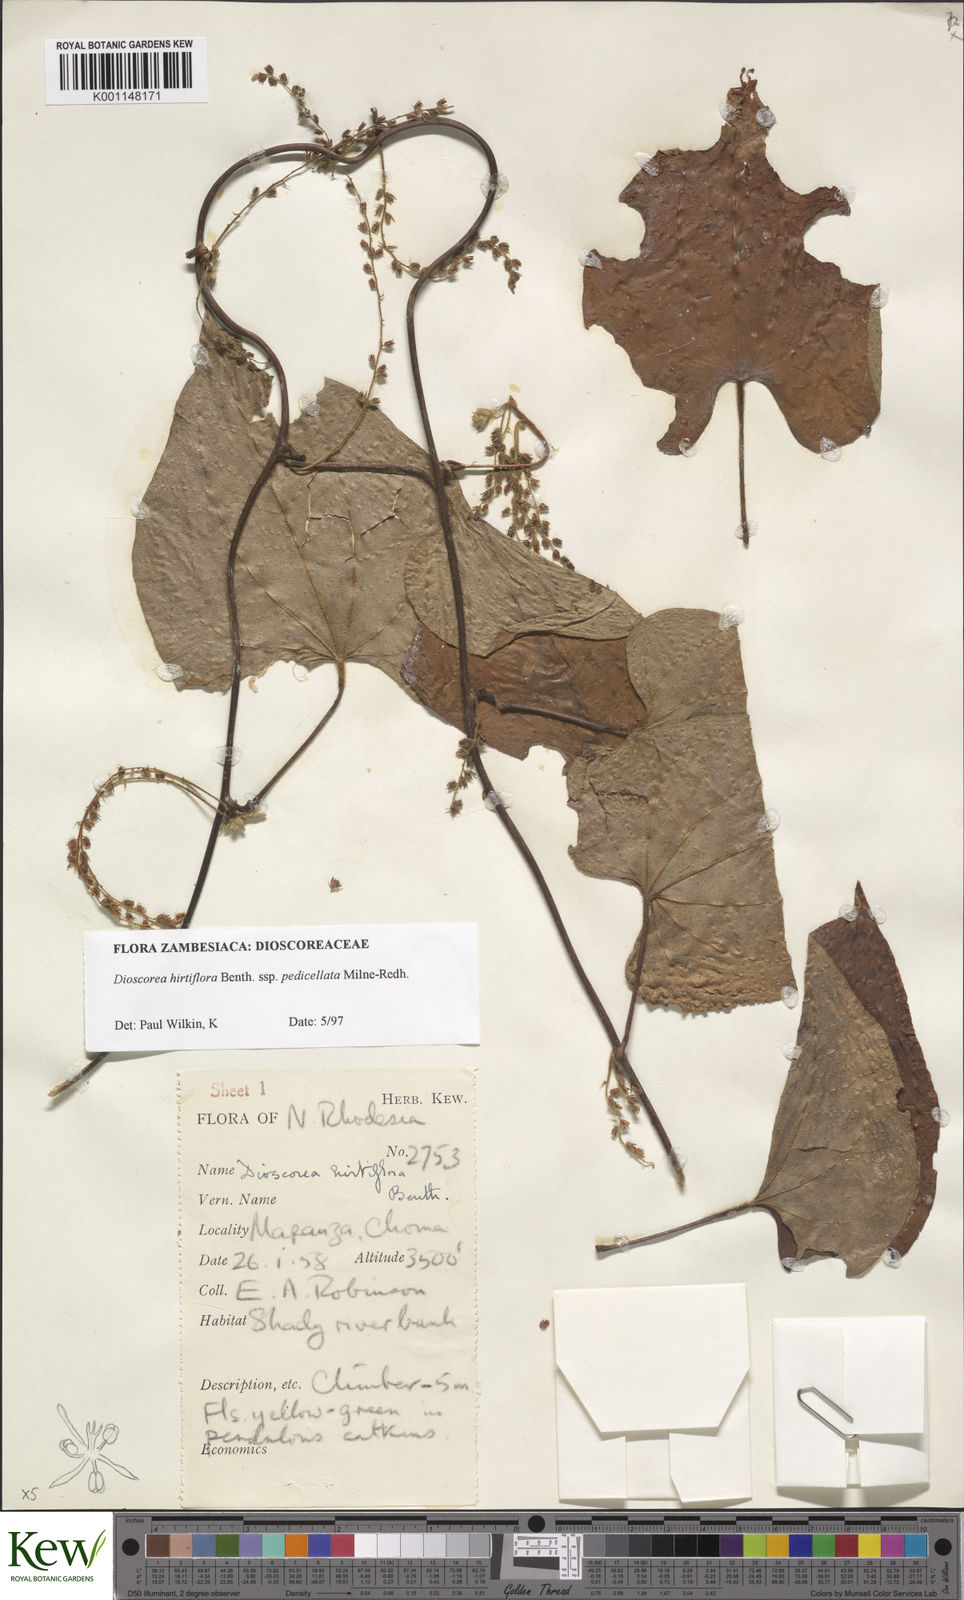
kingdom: Plantae
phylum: Tracheophyta
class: Liliopsida
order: Dioscoreales
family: Dioscoreaceae
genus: Dioscorea
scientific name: Dioscorea hirtiflora
